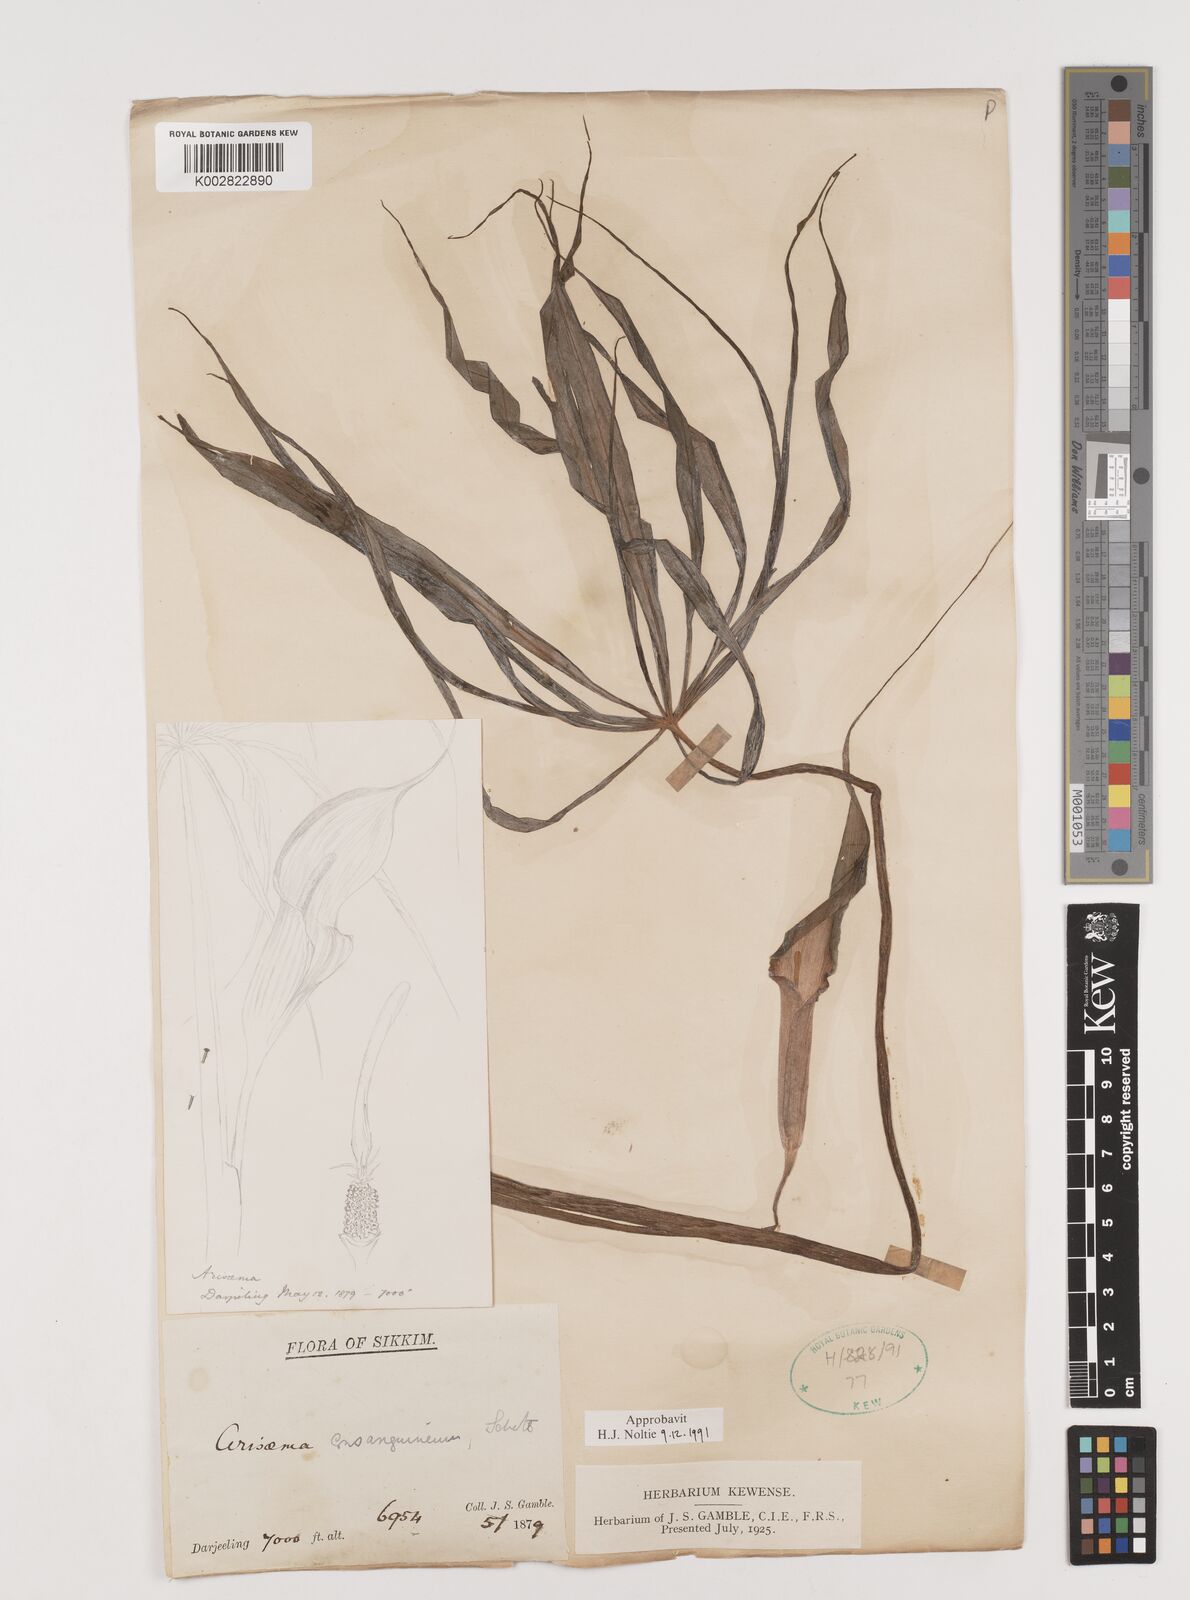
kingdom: Plantae
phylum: Tracheophyta
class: Liliopsida
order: Alismatales
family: Araceae
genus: Arisaema
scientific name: Arisaema erubescens
